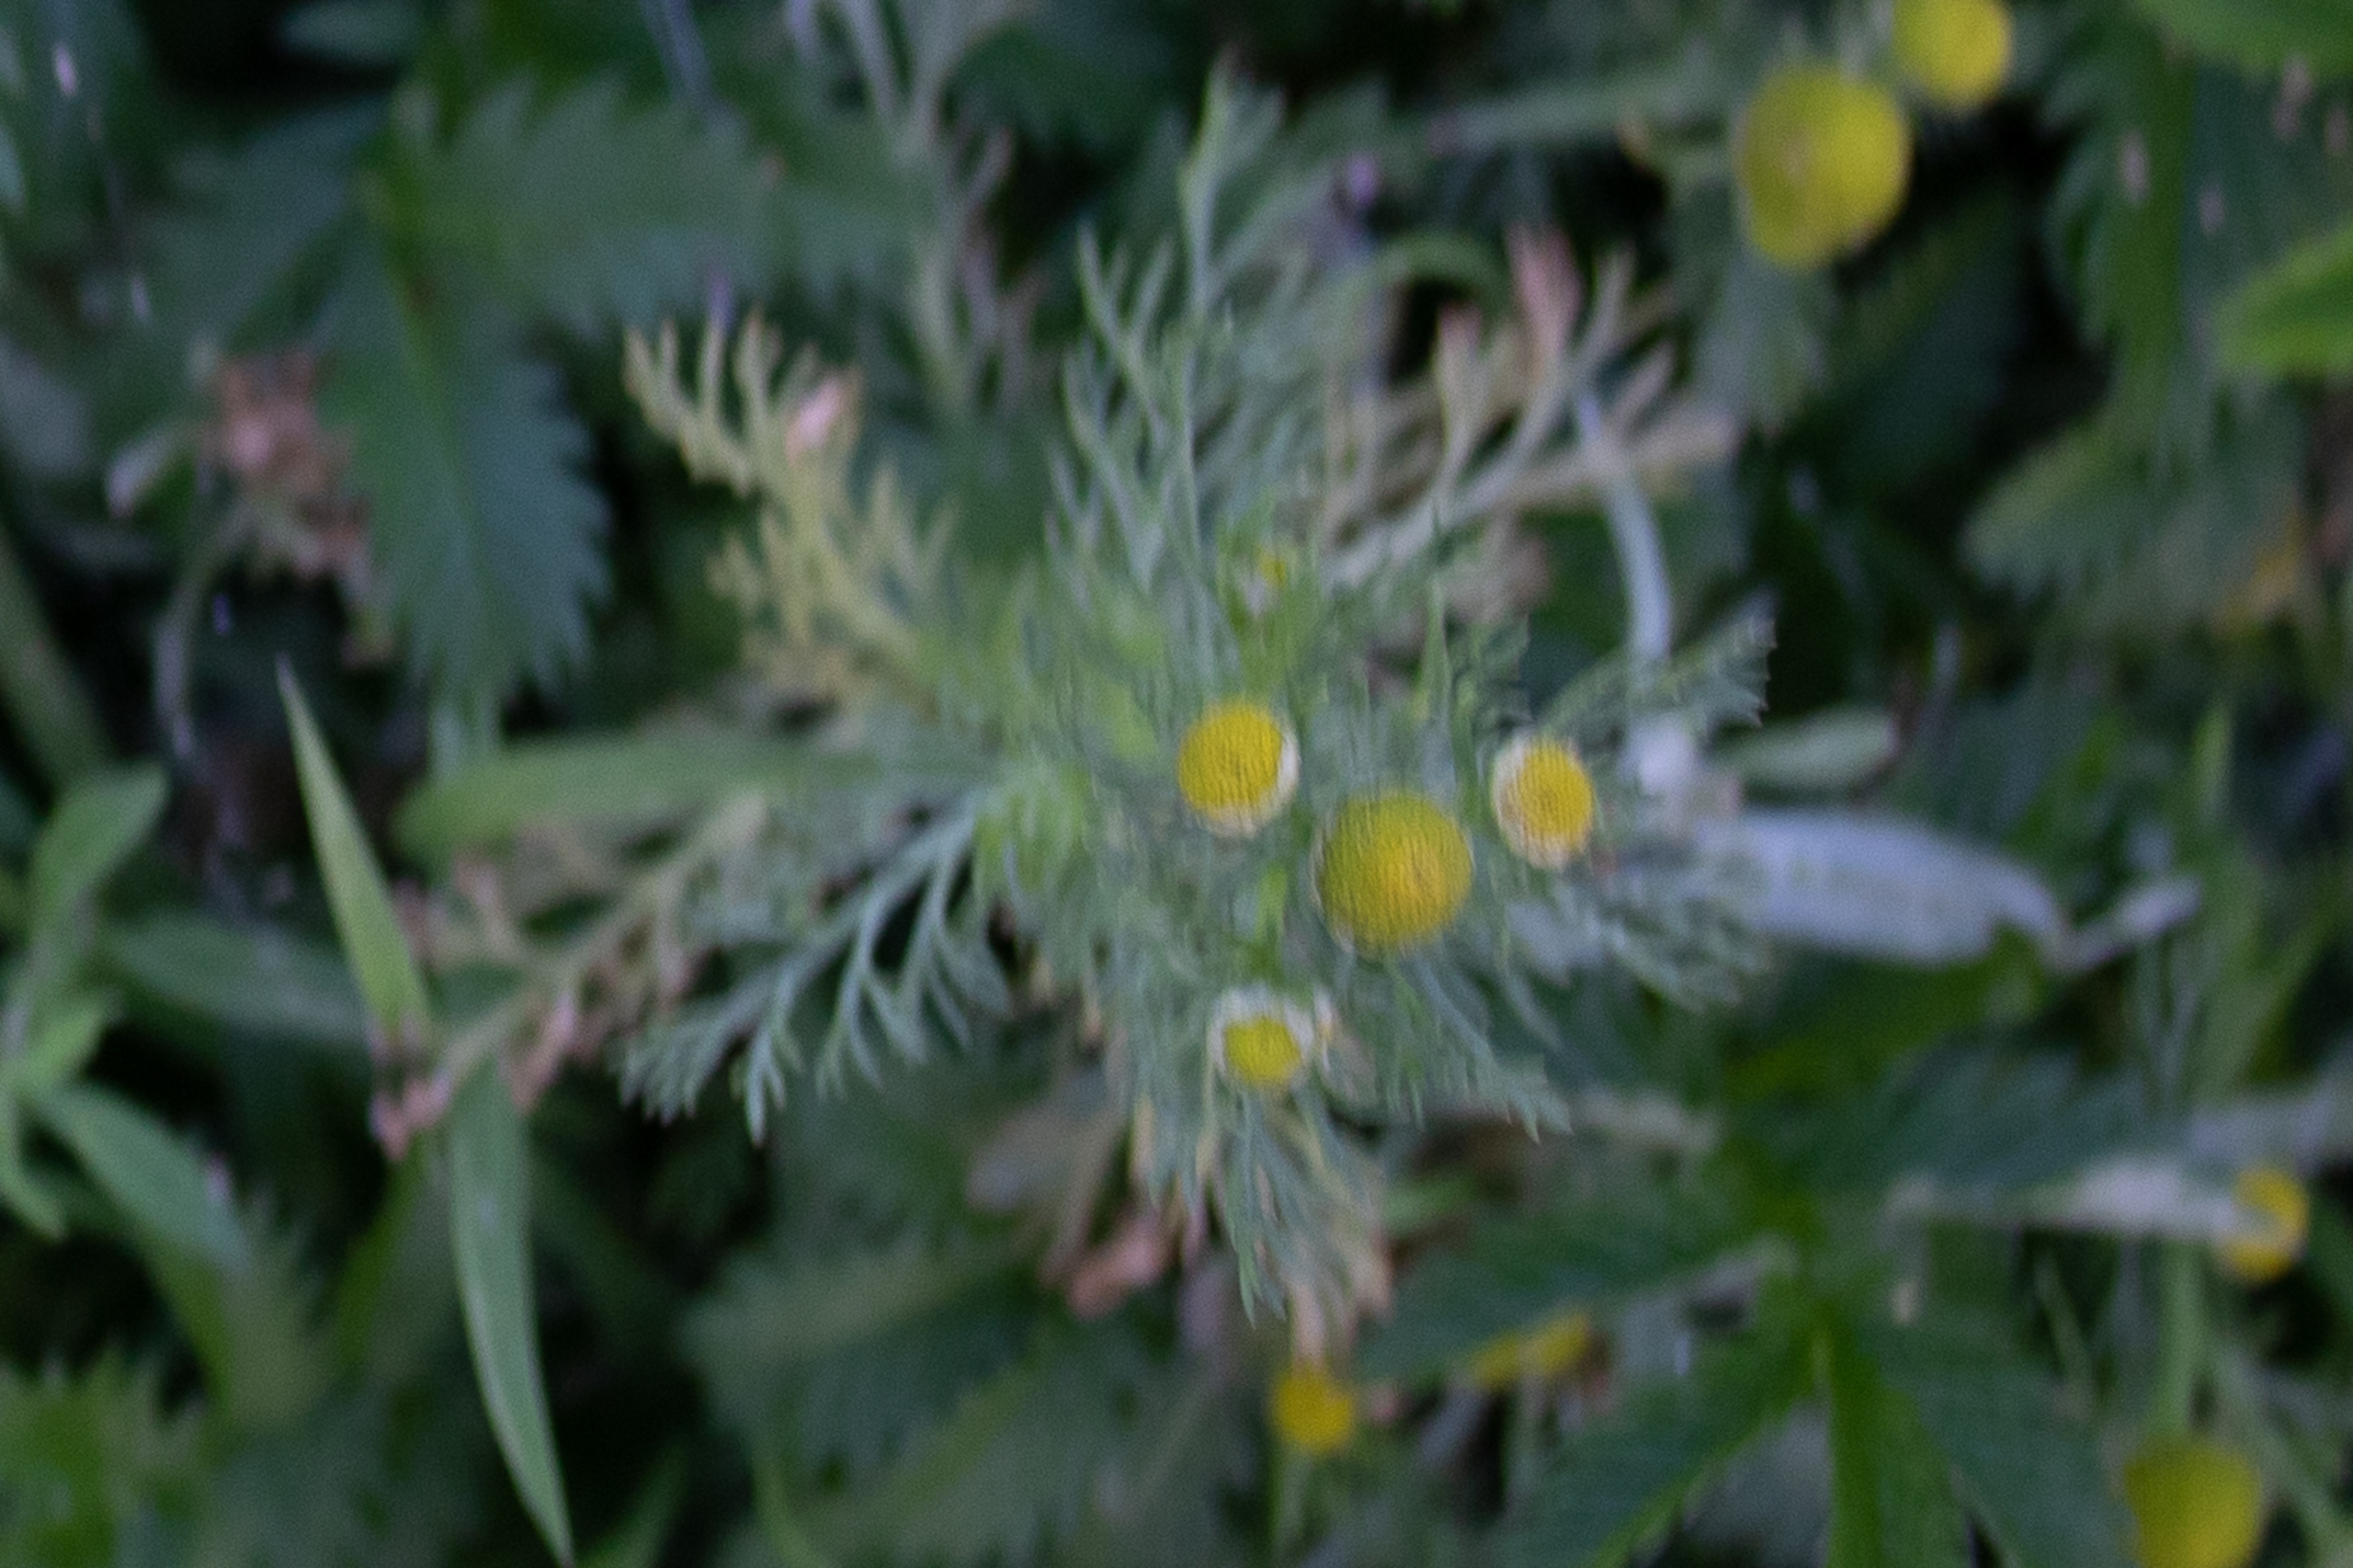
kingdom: Plantae
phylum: Tracheophyta
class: Magnoliopsida
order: Asterales
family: Asteraceae
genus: Matricaria
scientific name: Matricaria discoidea
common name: Skive-kamille
